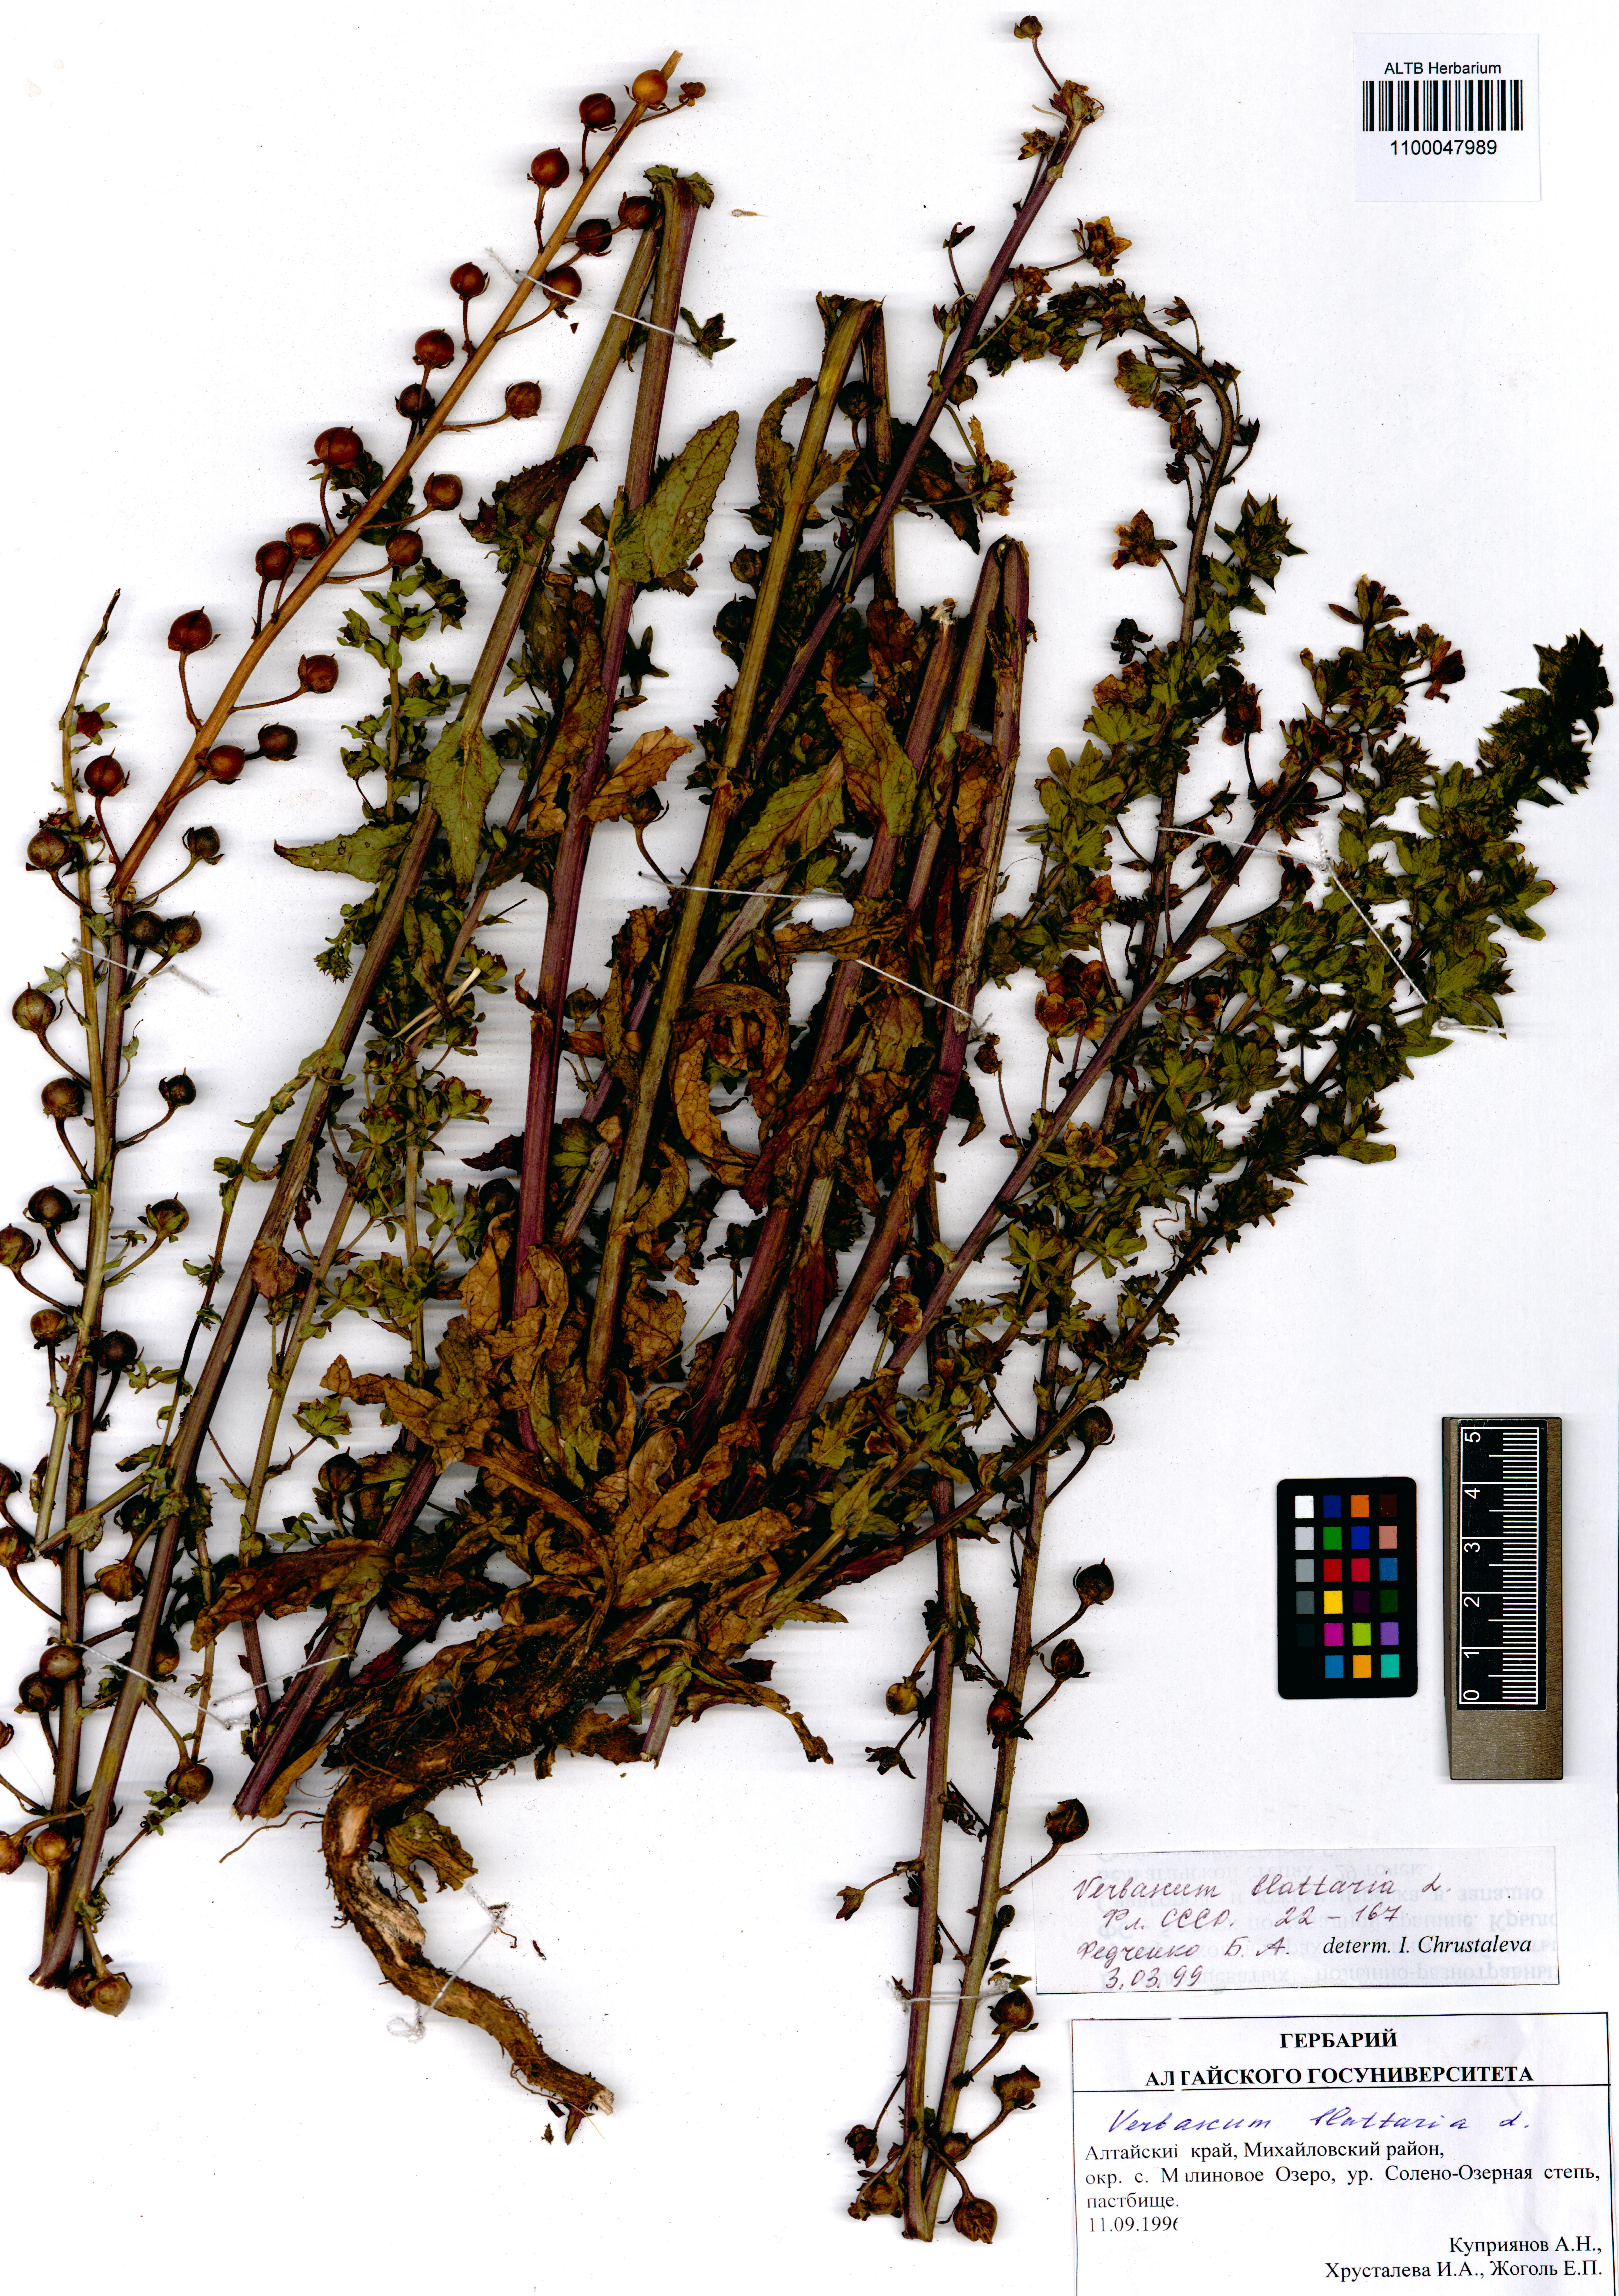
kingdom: Plantae
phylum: Tracheophyta
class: Magnoliopsida
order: Lamiales
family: Scrophulariaceae
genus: Verbascum
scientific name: Verbascum blattaria
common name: Moth mullein
